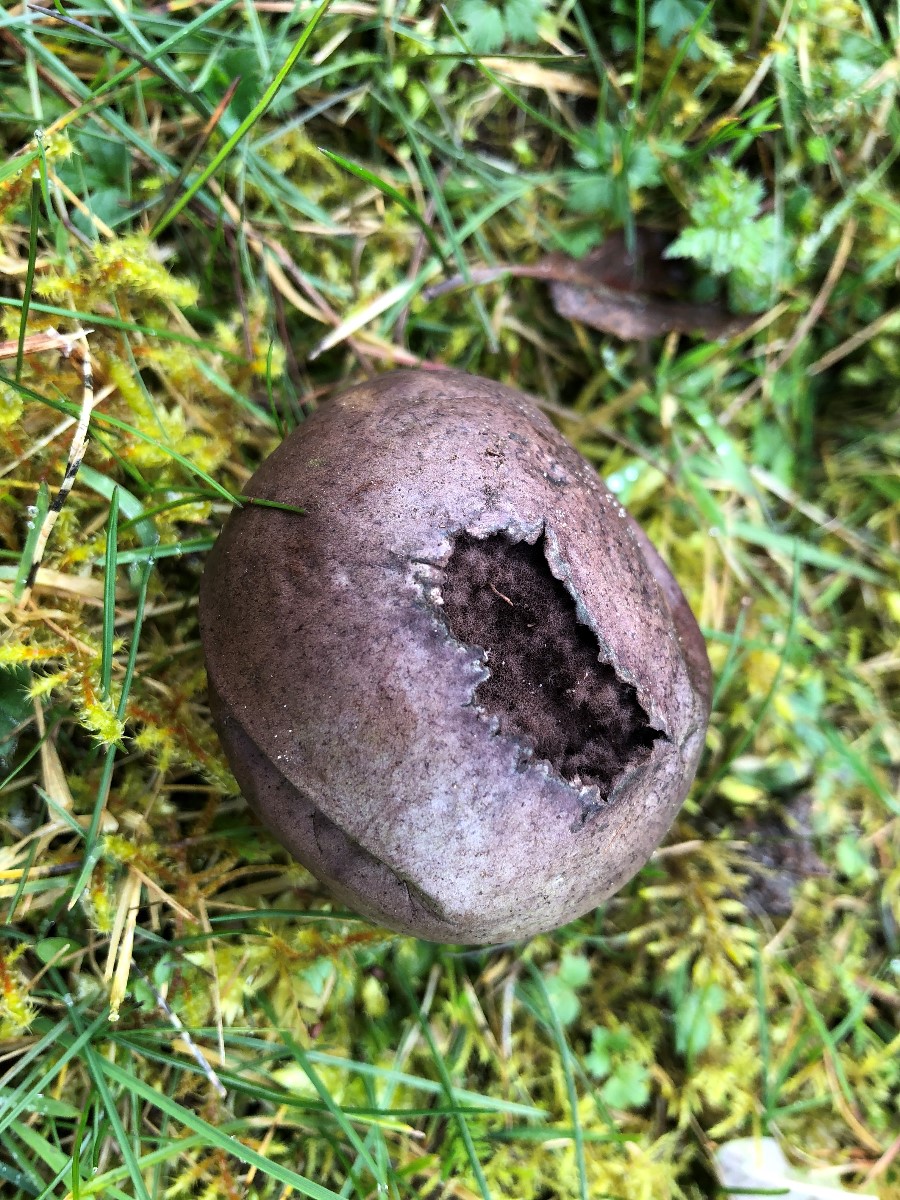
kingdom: Fungi
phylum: Basidiomycota
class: Agaricomycetes
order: Agaricales
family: Lycoperdaceae
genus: Bovista
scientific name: Bovista nigrescens
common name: sortagtig bovist
